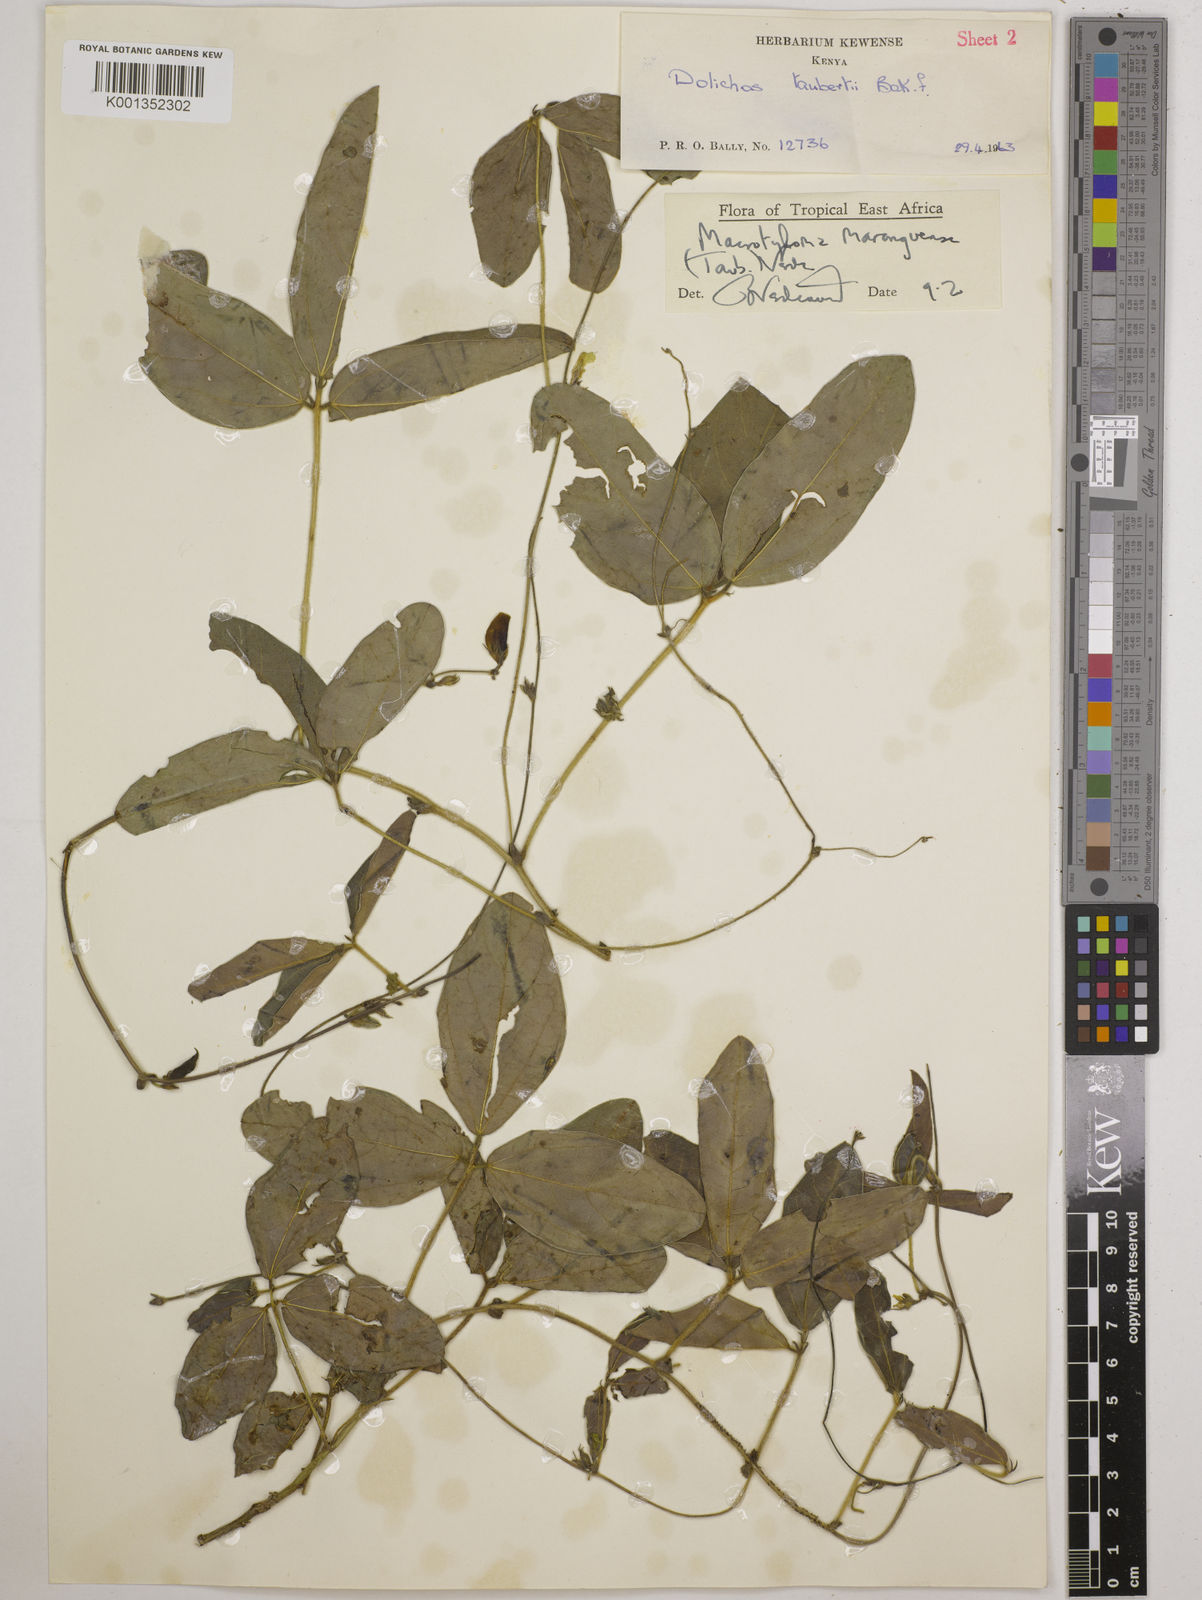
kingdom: Plantae
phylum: Tracheophyta
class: Magnoliopsida
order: Fabales
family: Fabaceae
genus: Macrotyloma
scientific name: Macrotyloma maranguense
